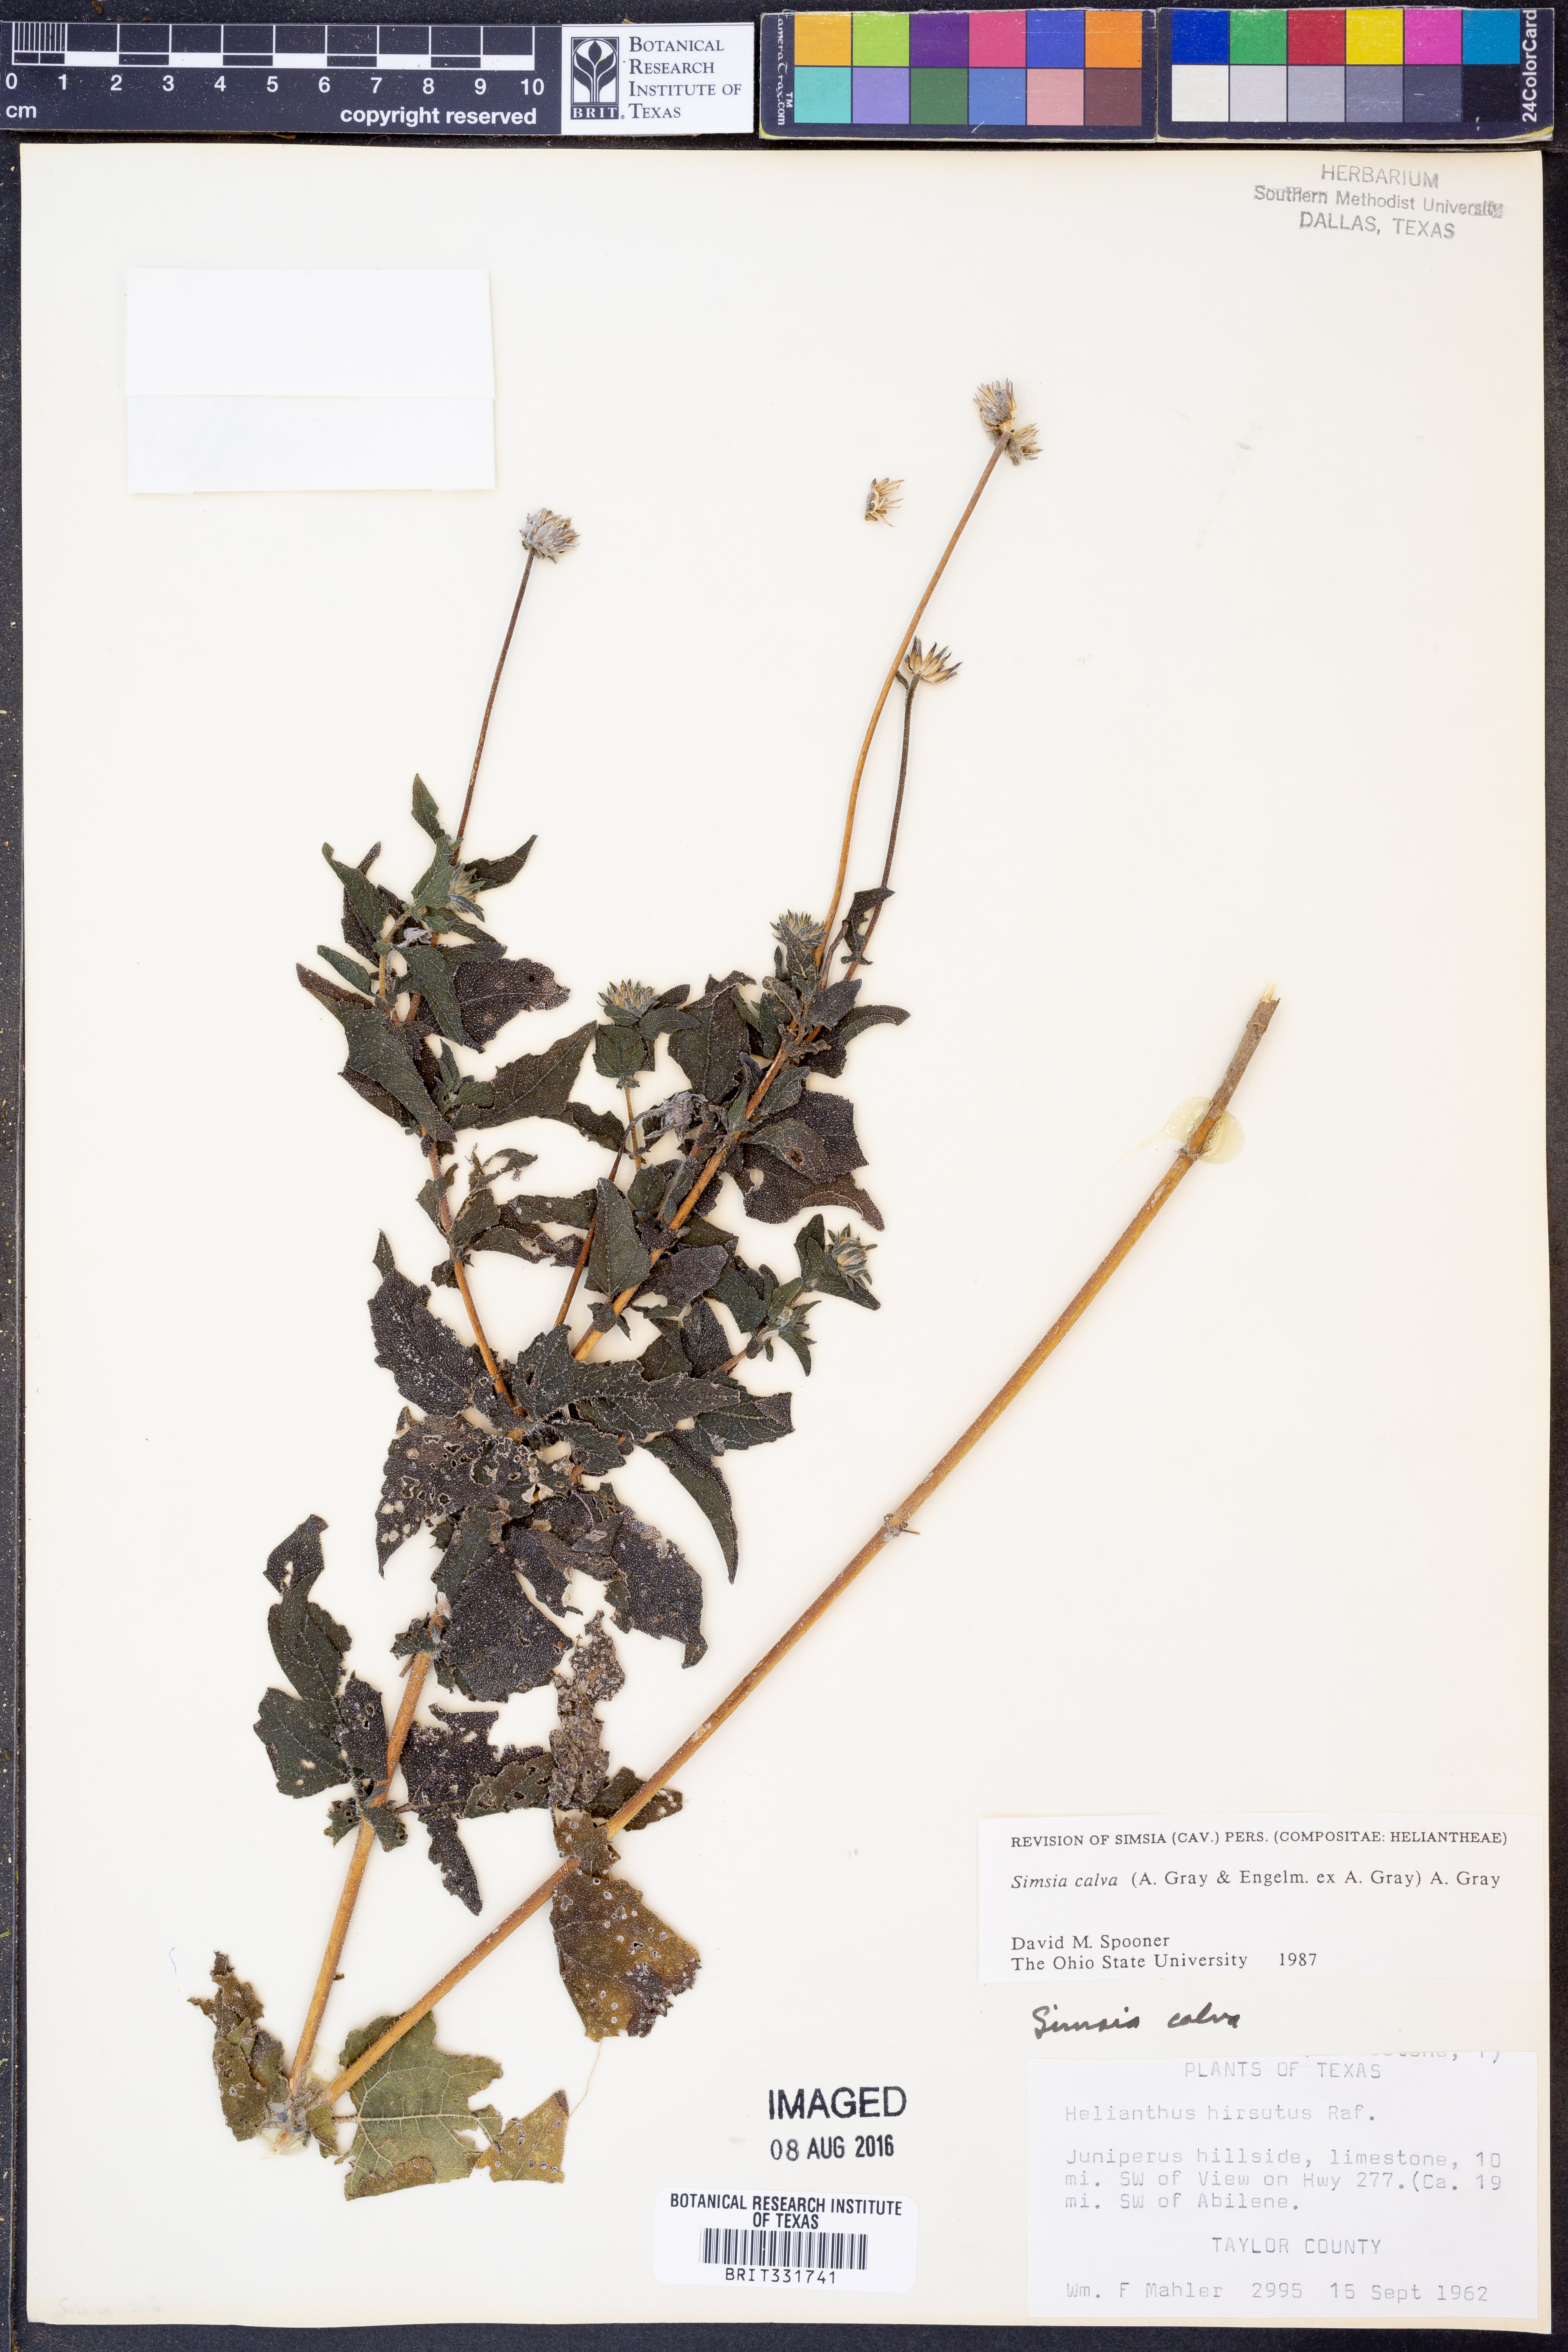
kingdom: Plantae
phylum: Tracheophyta
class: Magnoliopsida
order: Asterales
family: Asteraceae
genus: Simsia
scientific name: Simsia calva
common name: Awnless bush-sunflower
